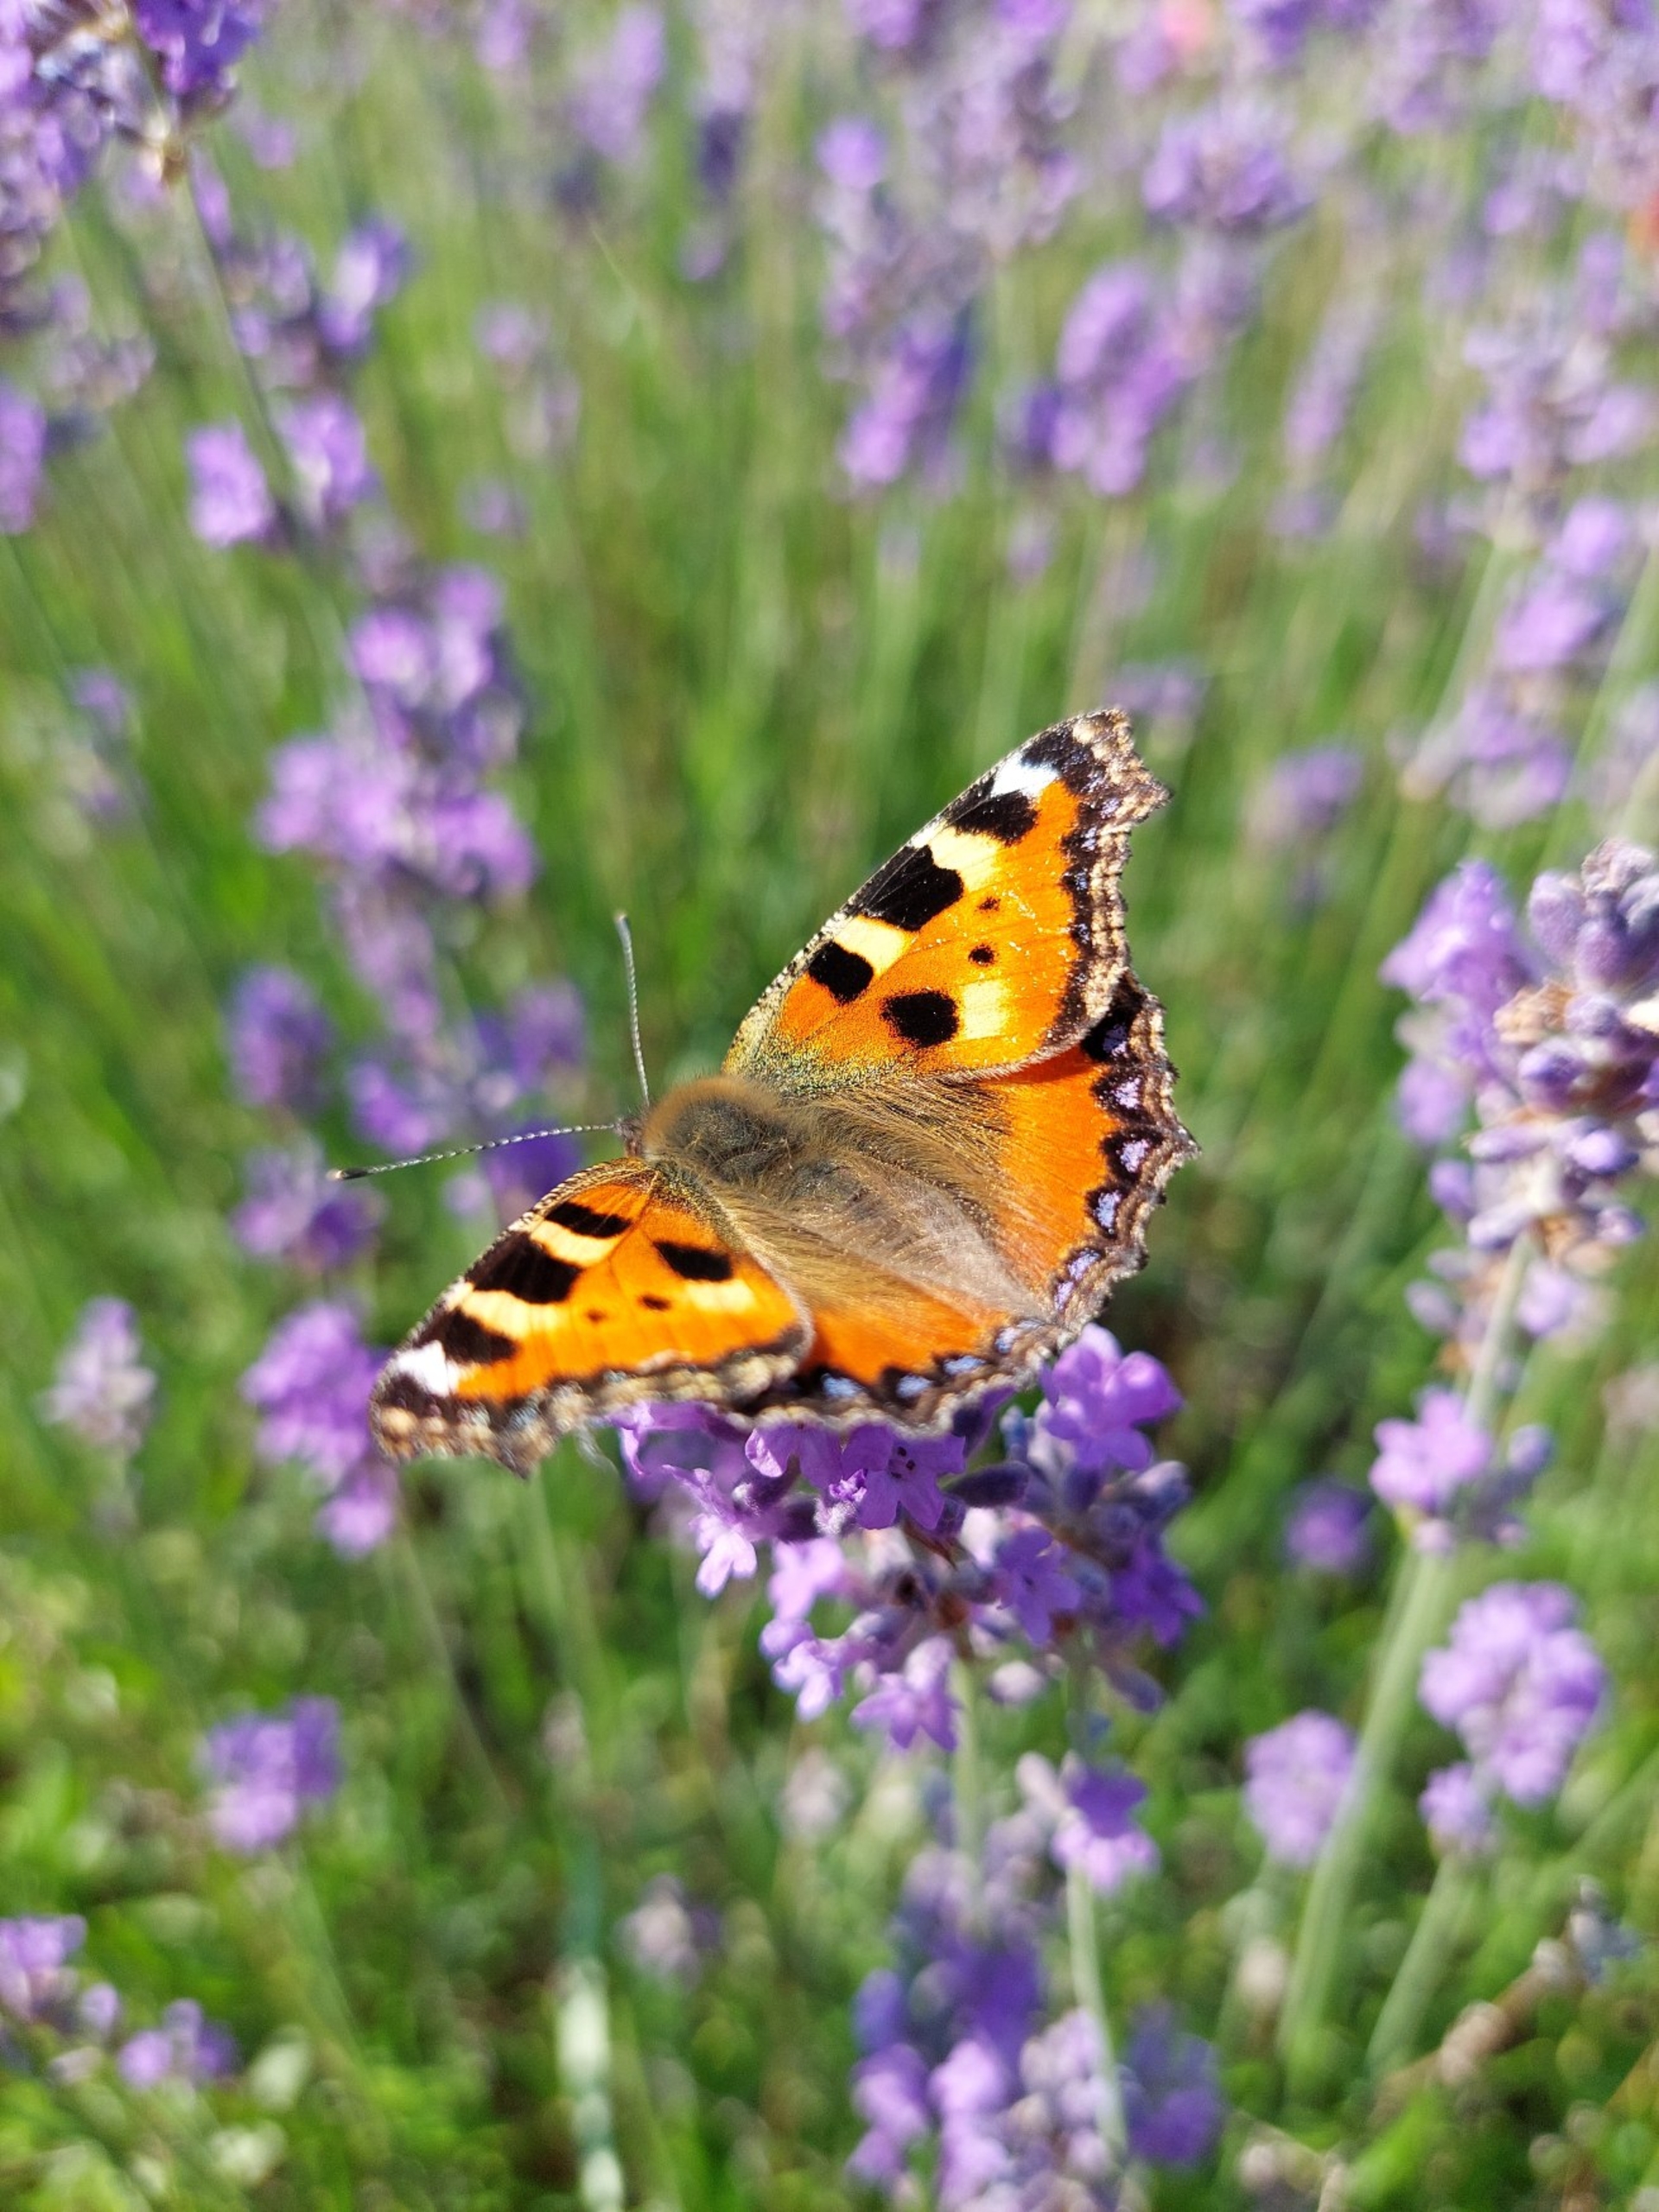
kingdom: Animalia
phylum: Arthropoda
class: Insecta
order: Lepidoptera
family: Nymphalidae
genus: Aglais
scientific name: Aglais urticae
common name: Nældens takvinge
